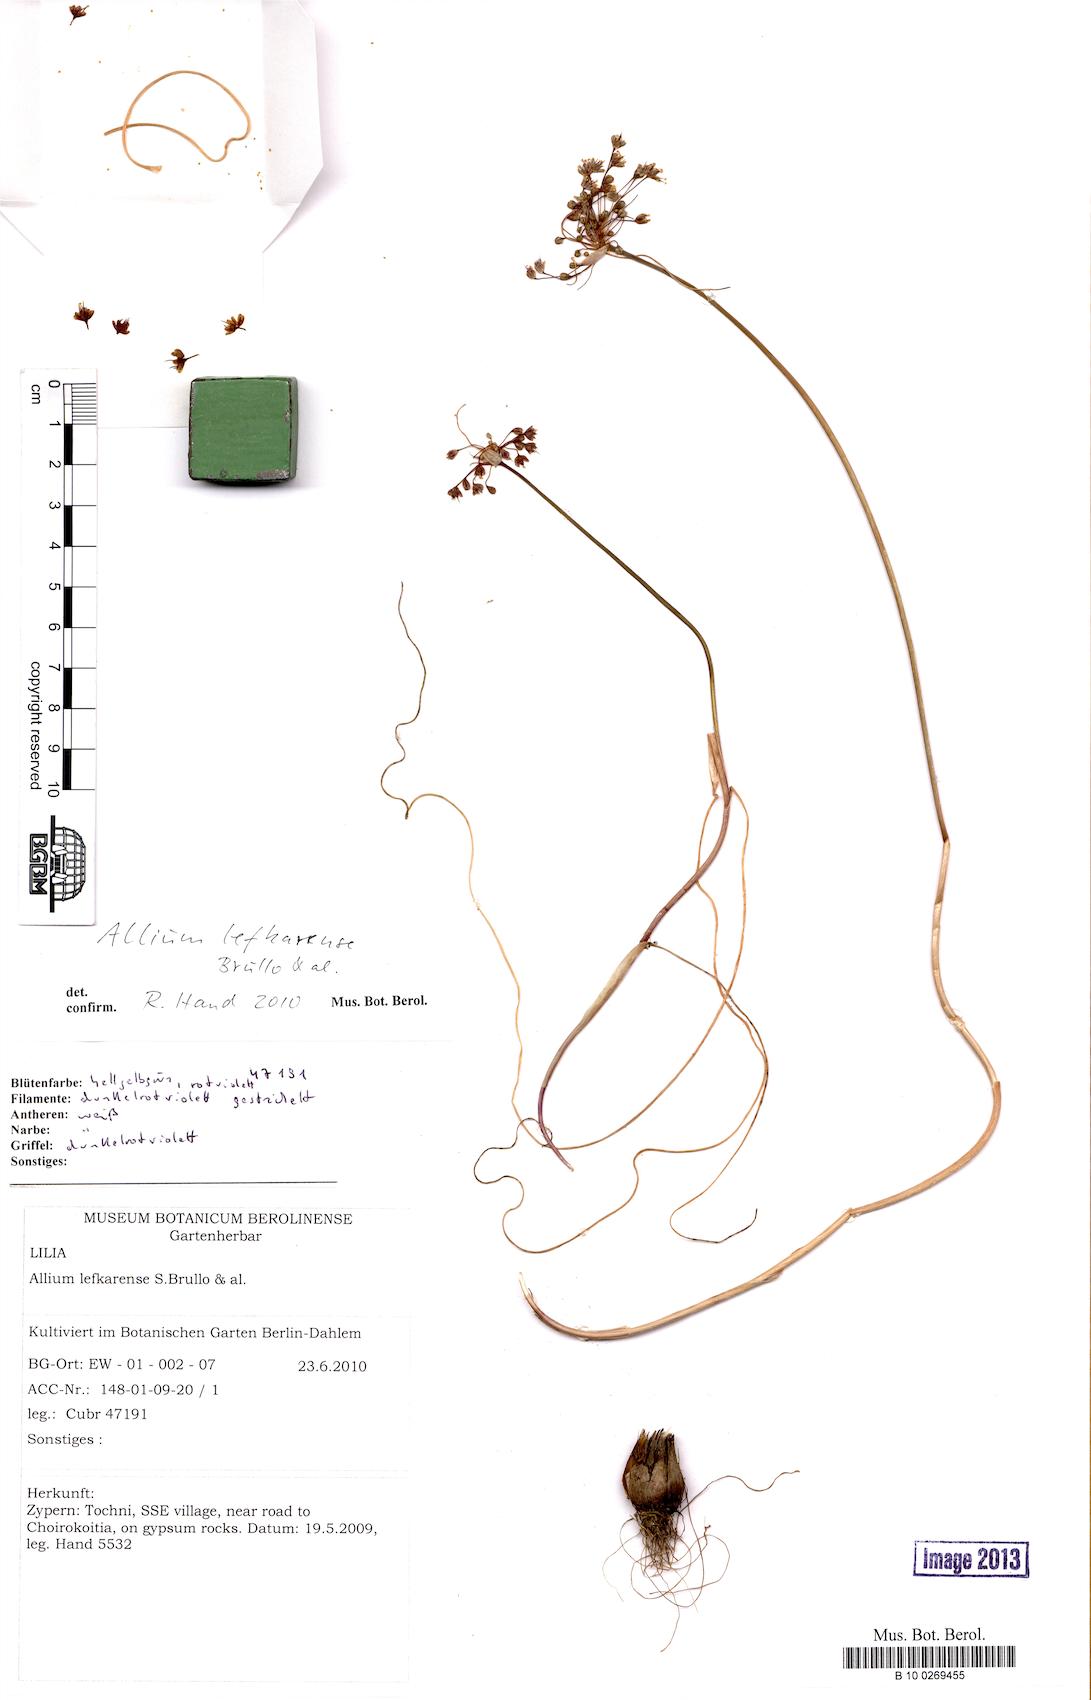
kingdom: Plantae
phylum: Tracheophyta
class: Liliopsida
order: Asparagales
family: Amaryllidaceae
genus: Allium
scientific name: Allium cyprium
